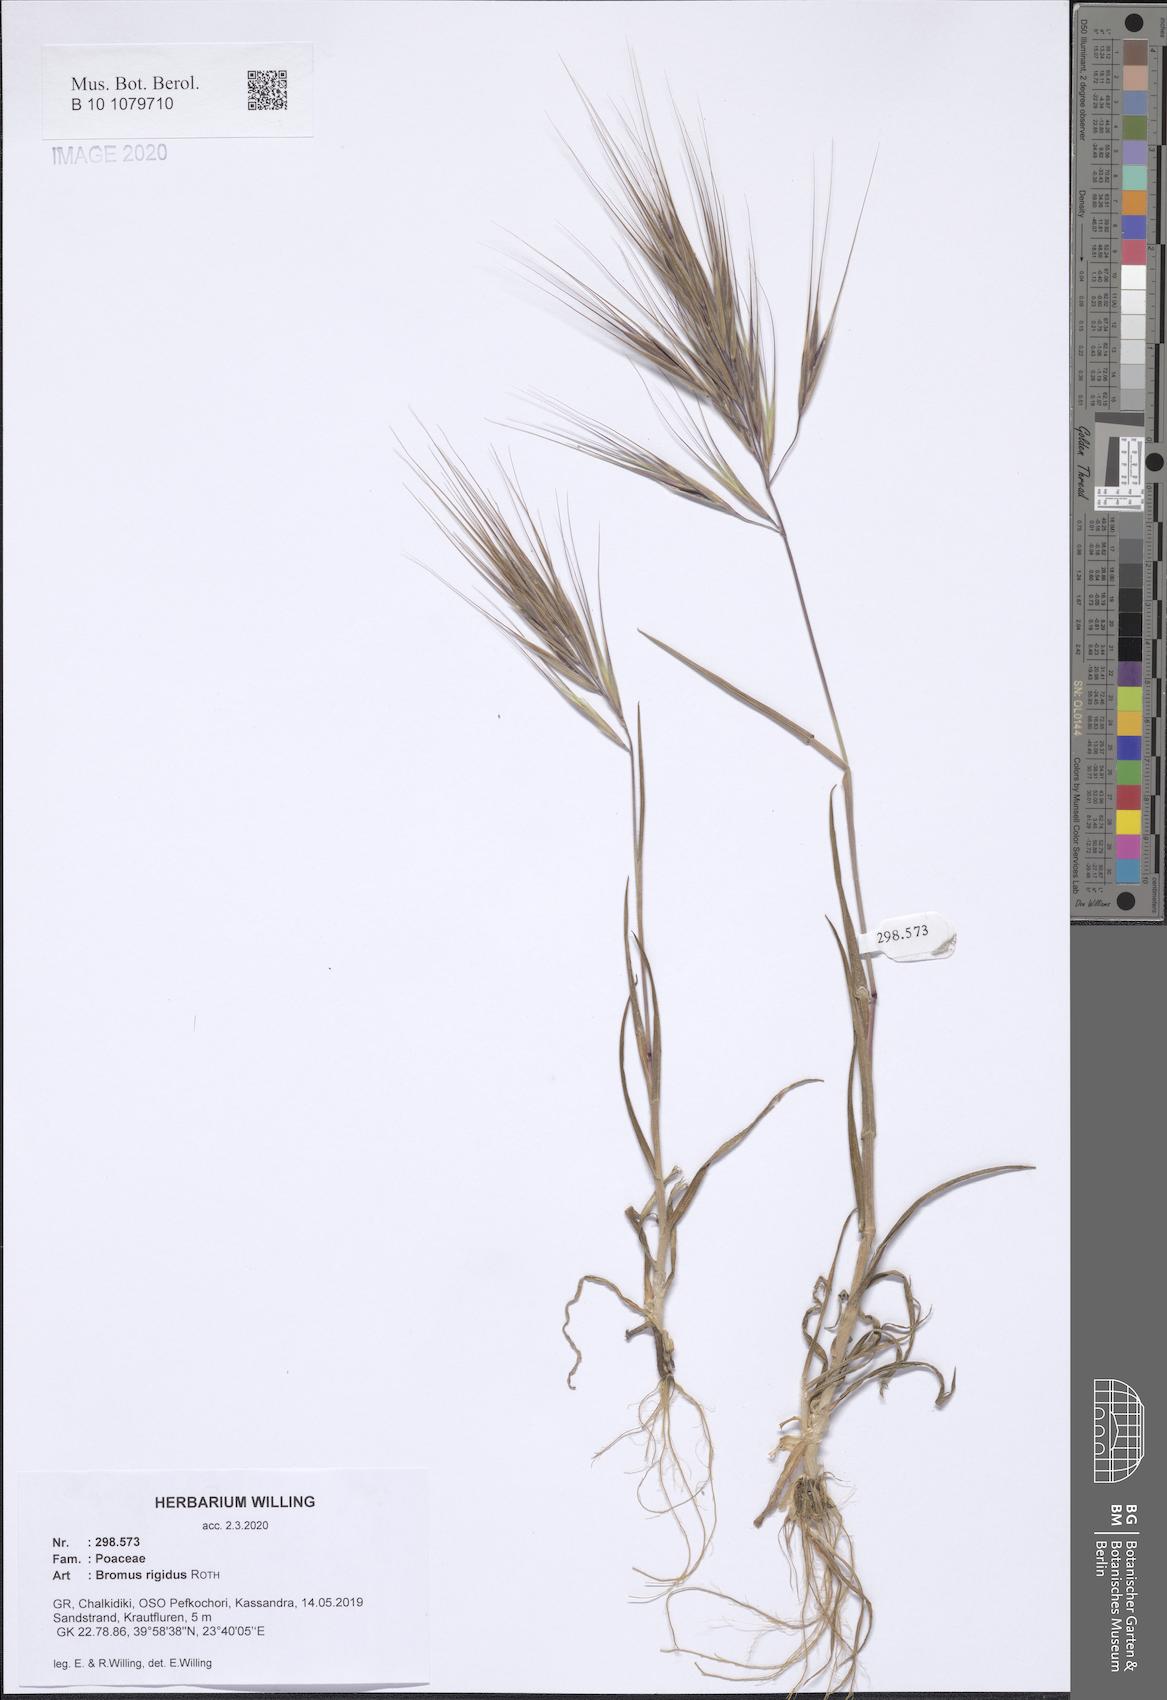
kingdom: Plantae
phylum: Tracheophyta
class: Liliopsida
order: Poales
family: Poaceae
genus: Bromus
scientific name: Bromus rigidus
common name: Ripgut brome
